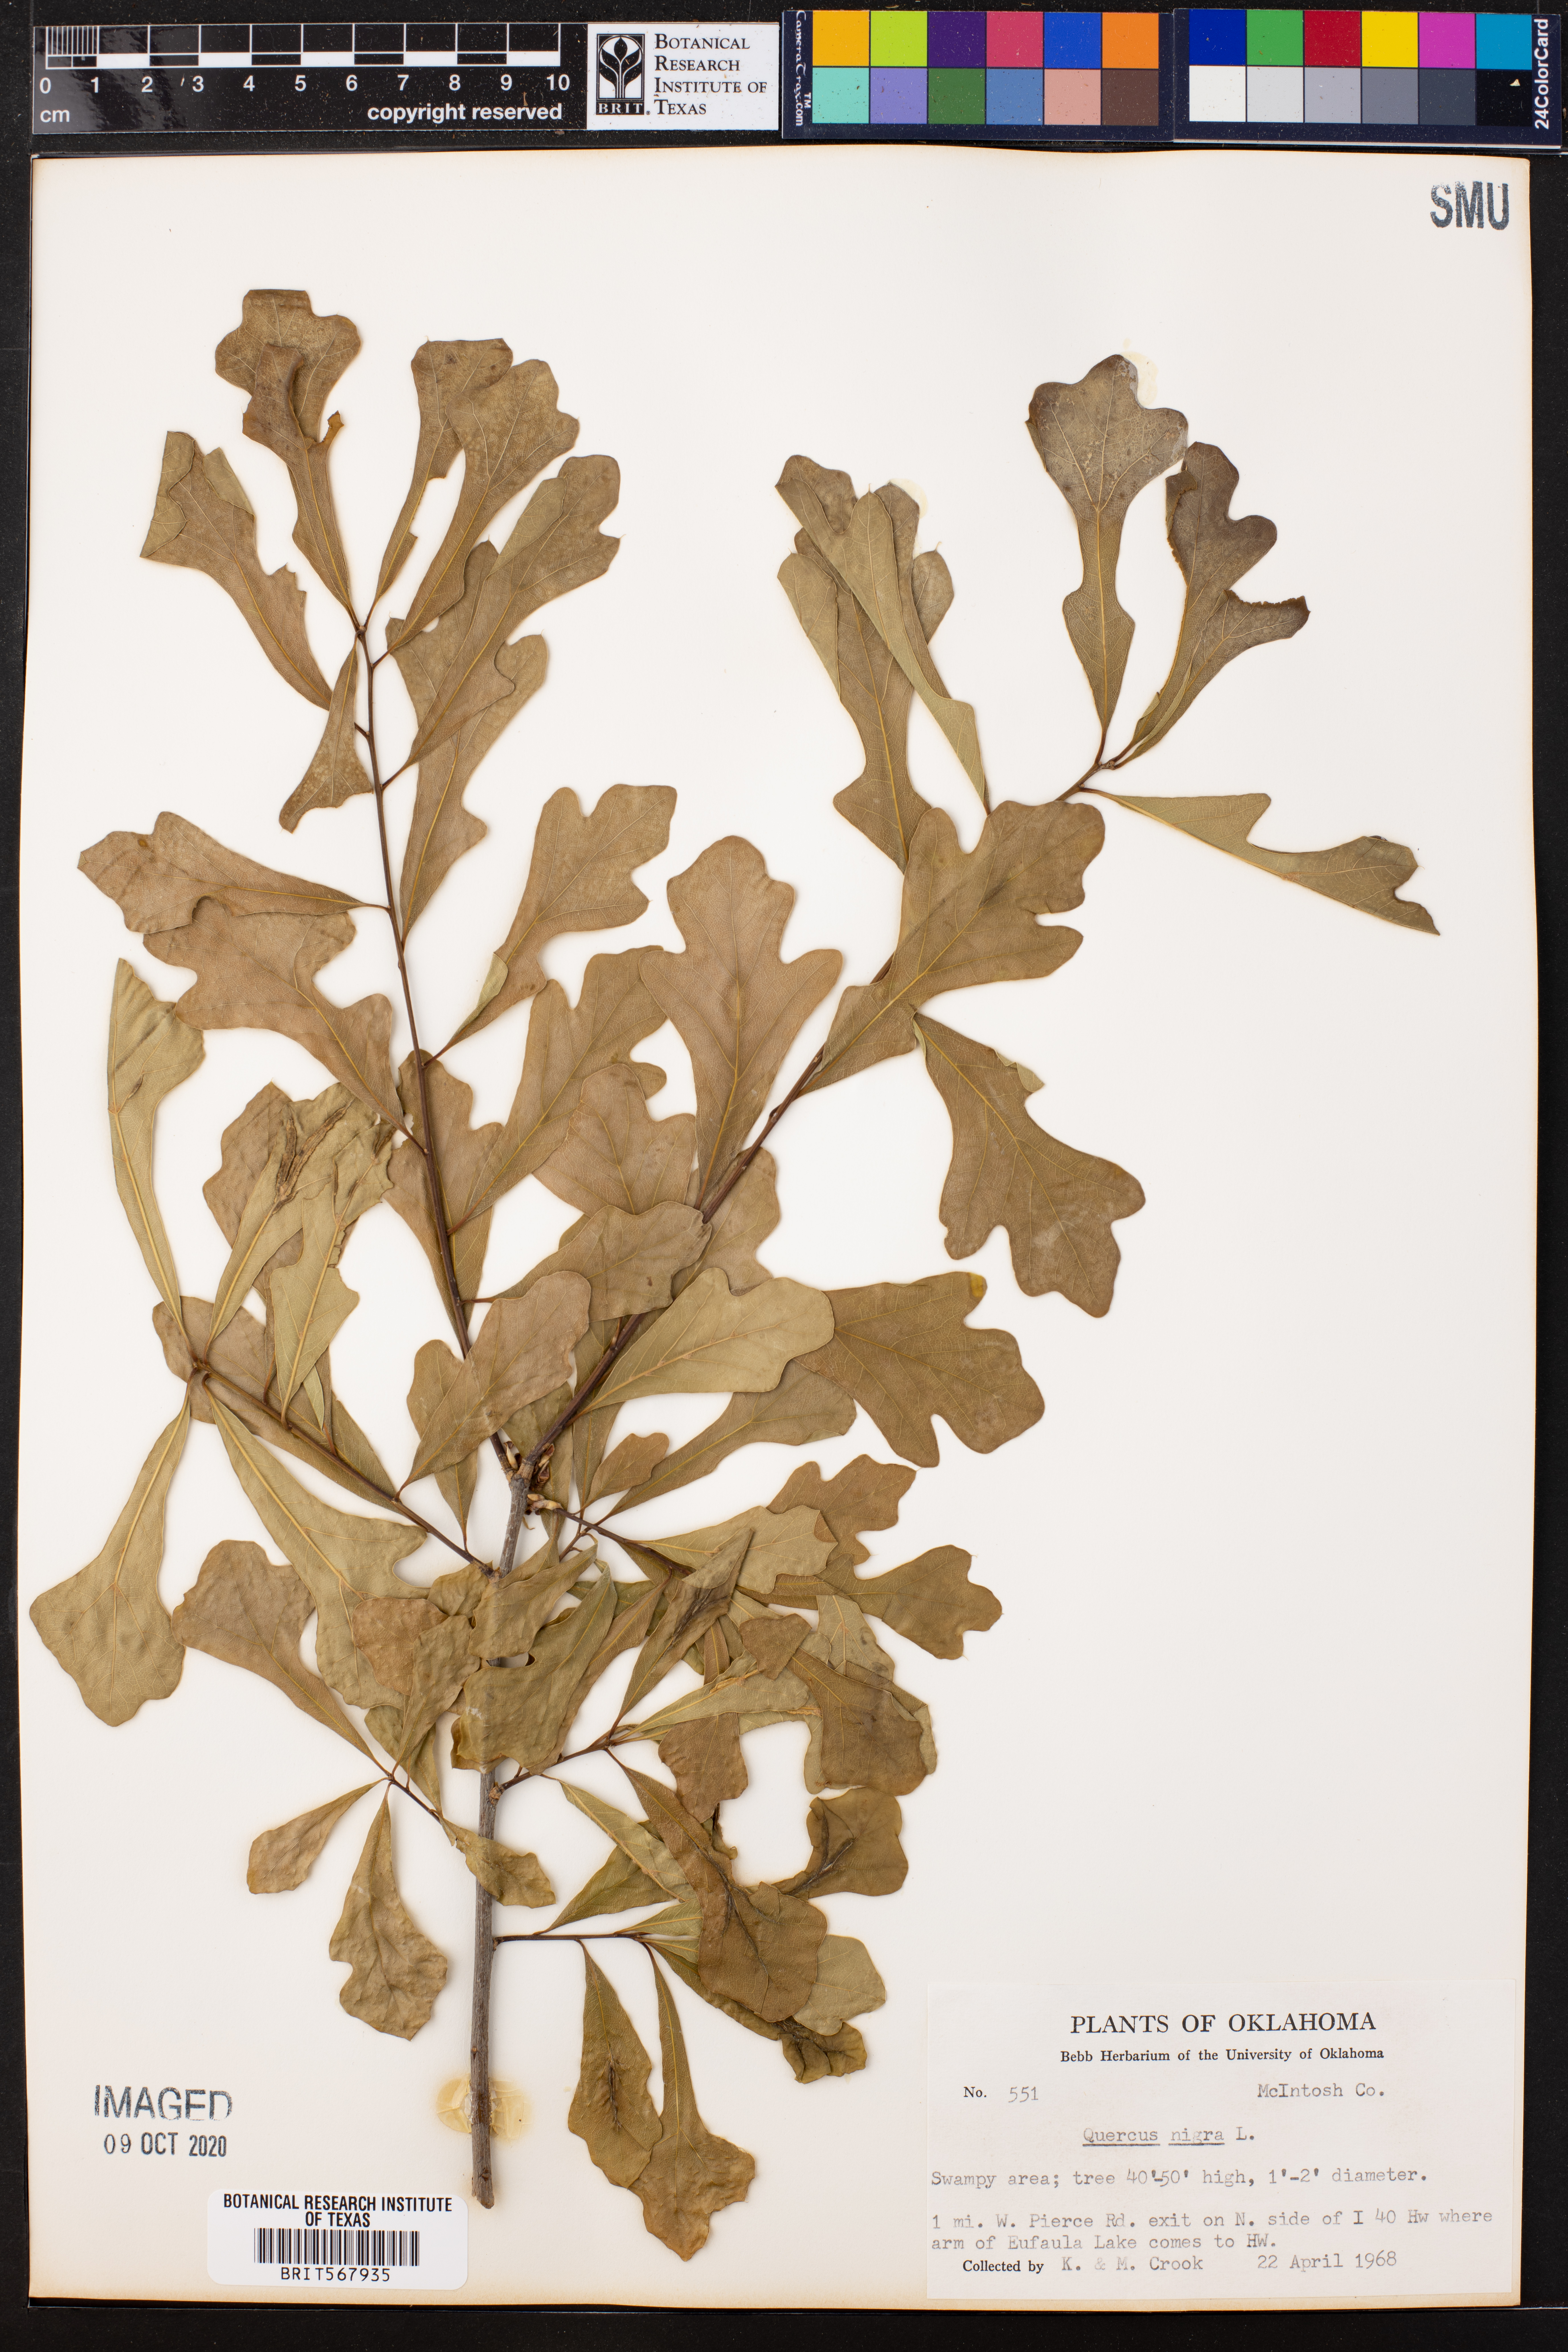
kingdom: Plantae
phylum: Tracheophyta
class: Magnoliopsida
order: Fagales
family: Fagaceae
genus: Quercus
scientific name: Quercus nigra
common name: Water oak
